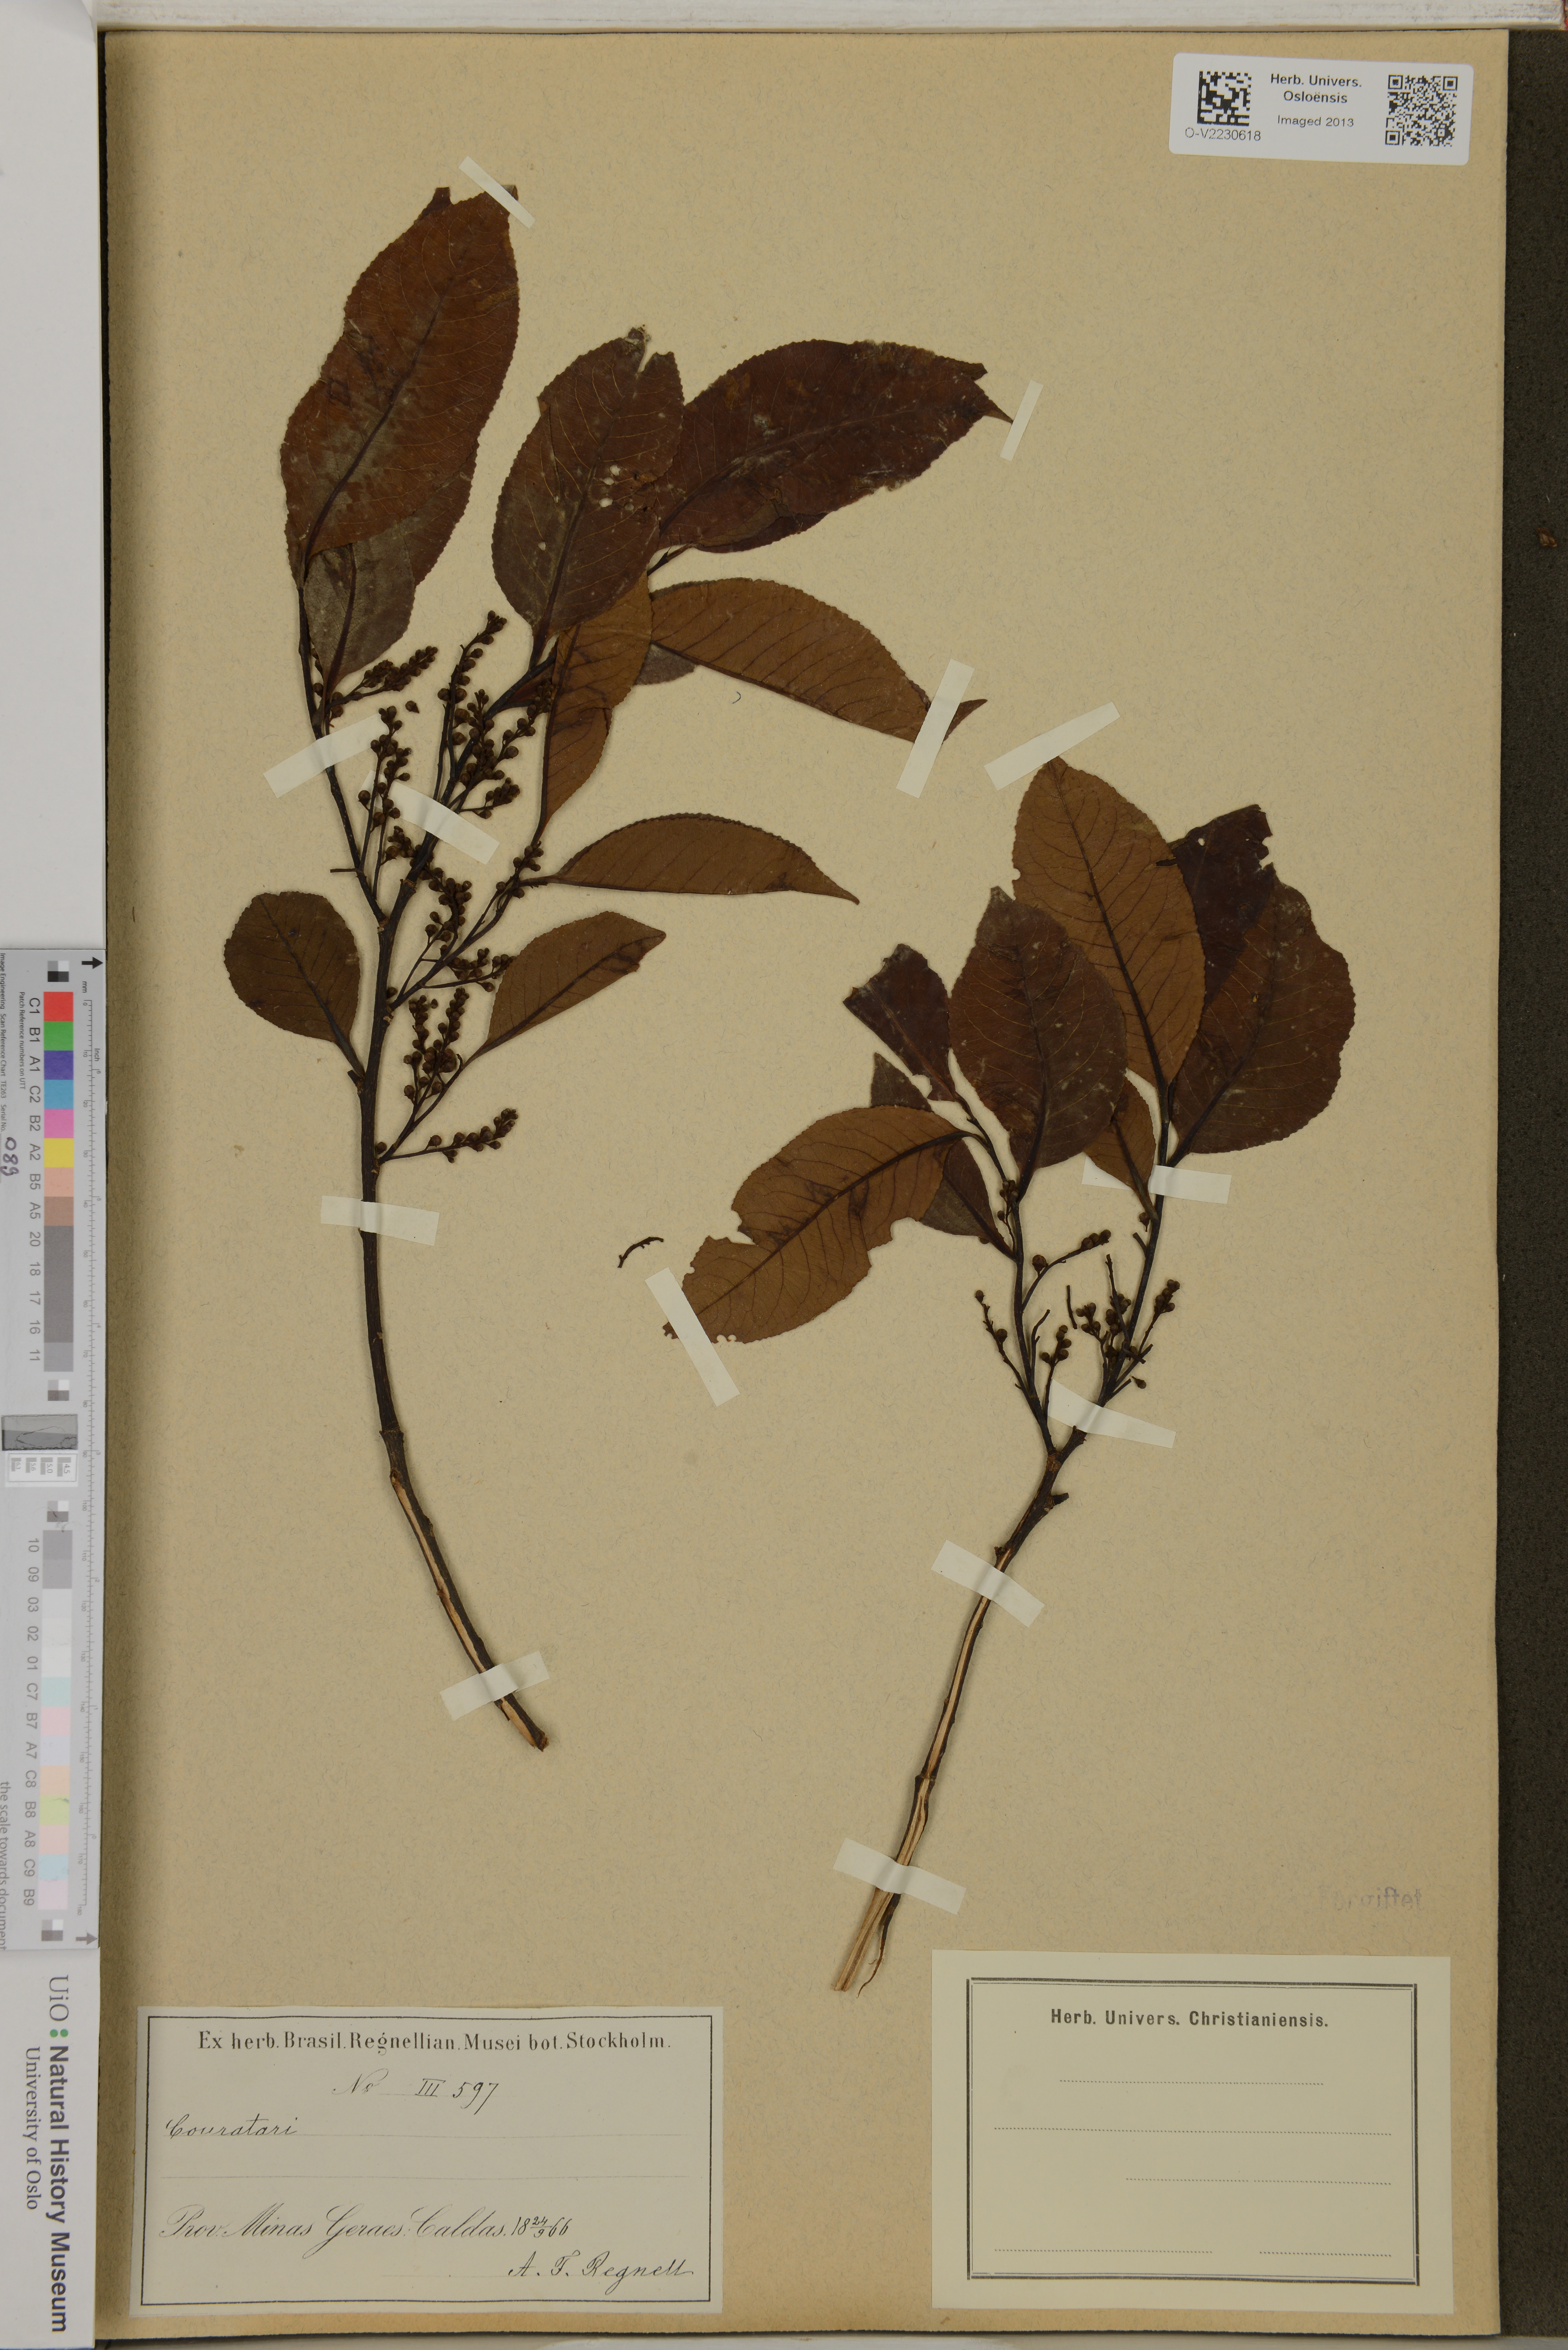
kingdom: Plantae
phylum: Tracheophyta
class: Magnoliopsida
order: Ericales
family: Lecythidaceae
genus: Couratari
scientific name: Couratari
